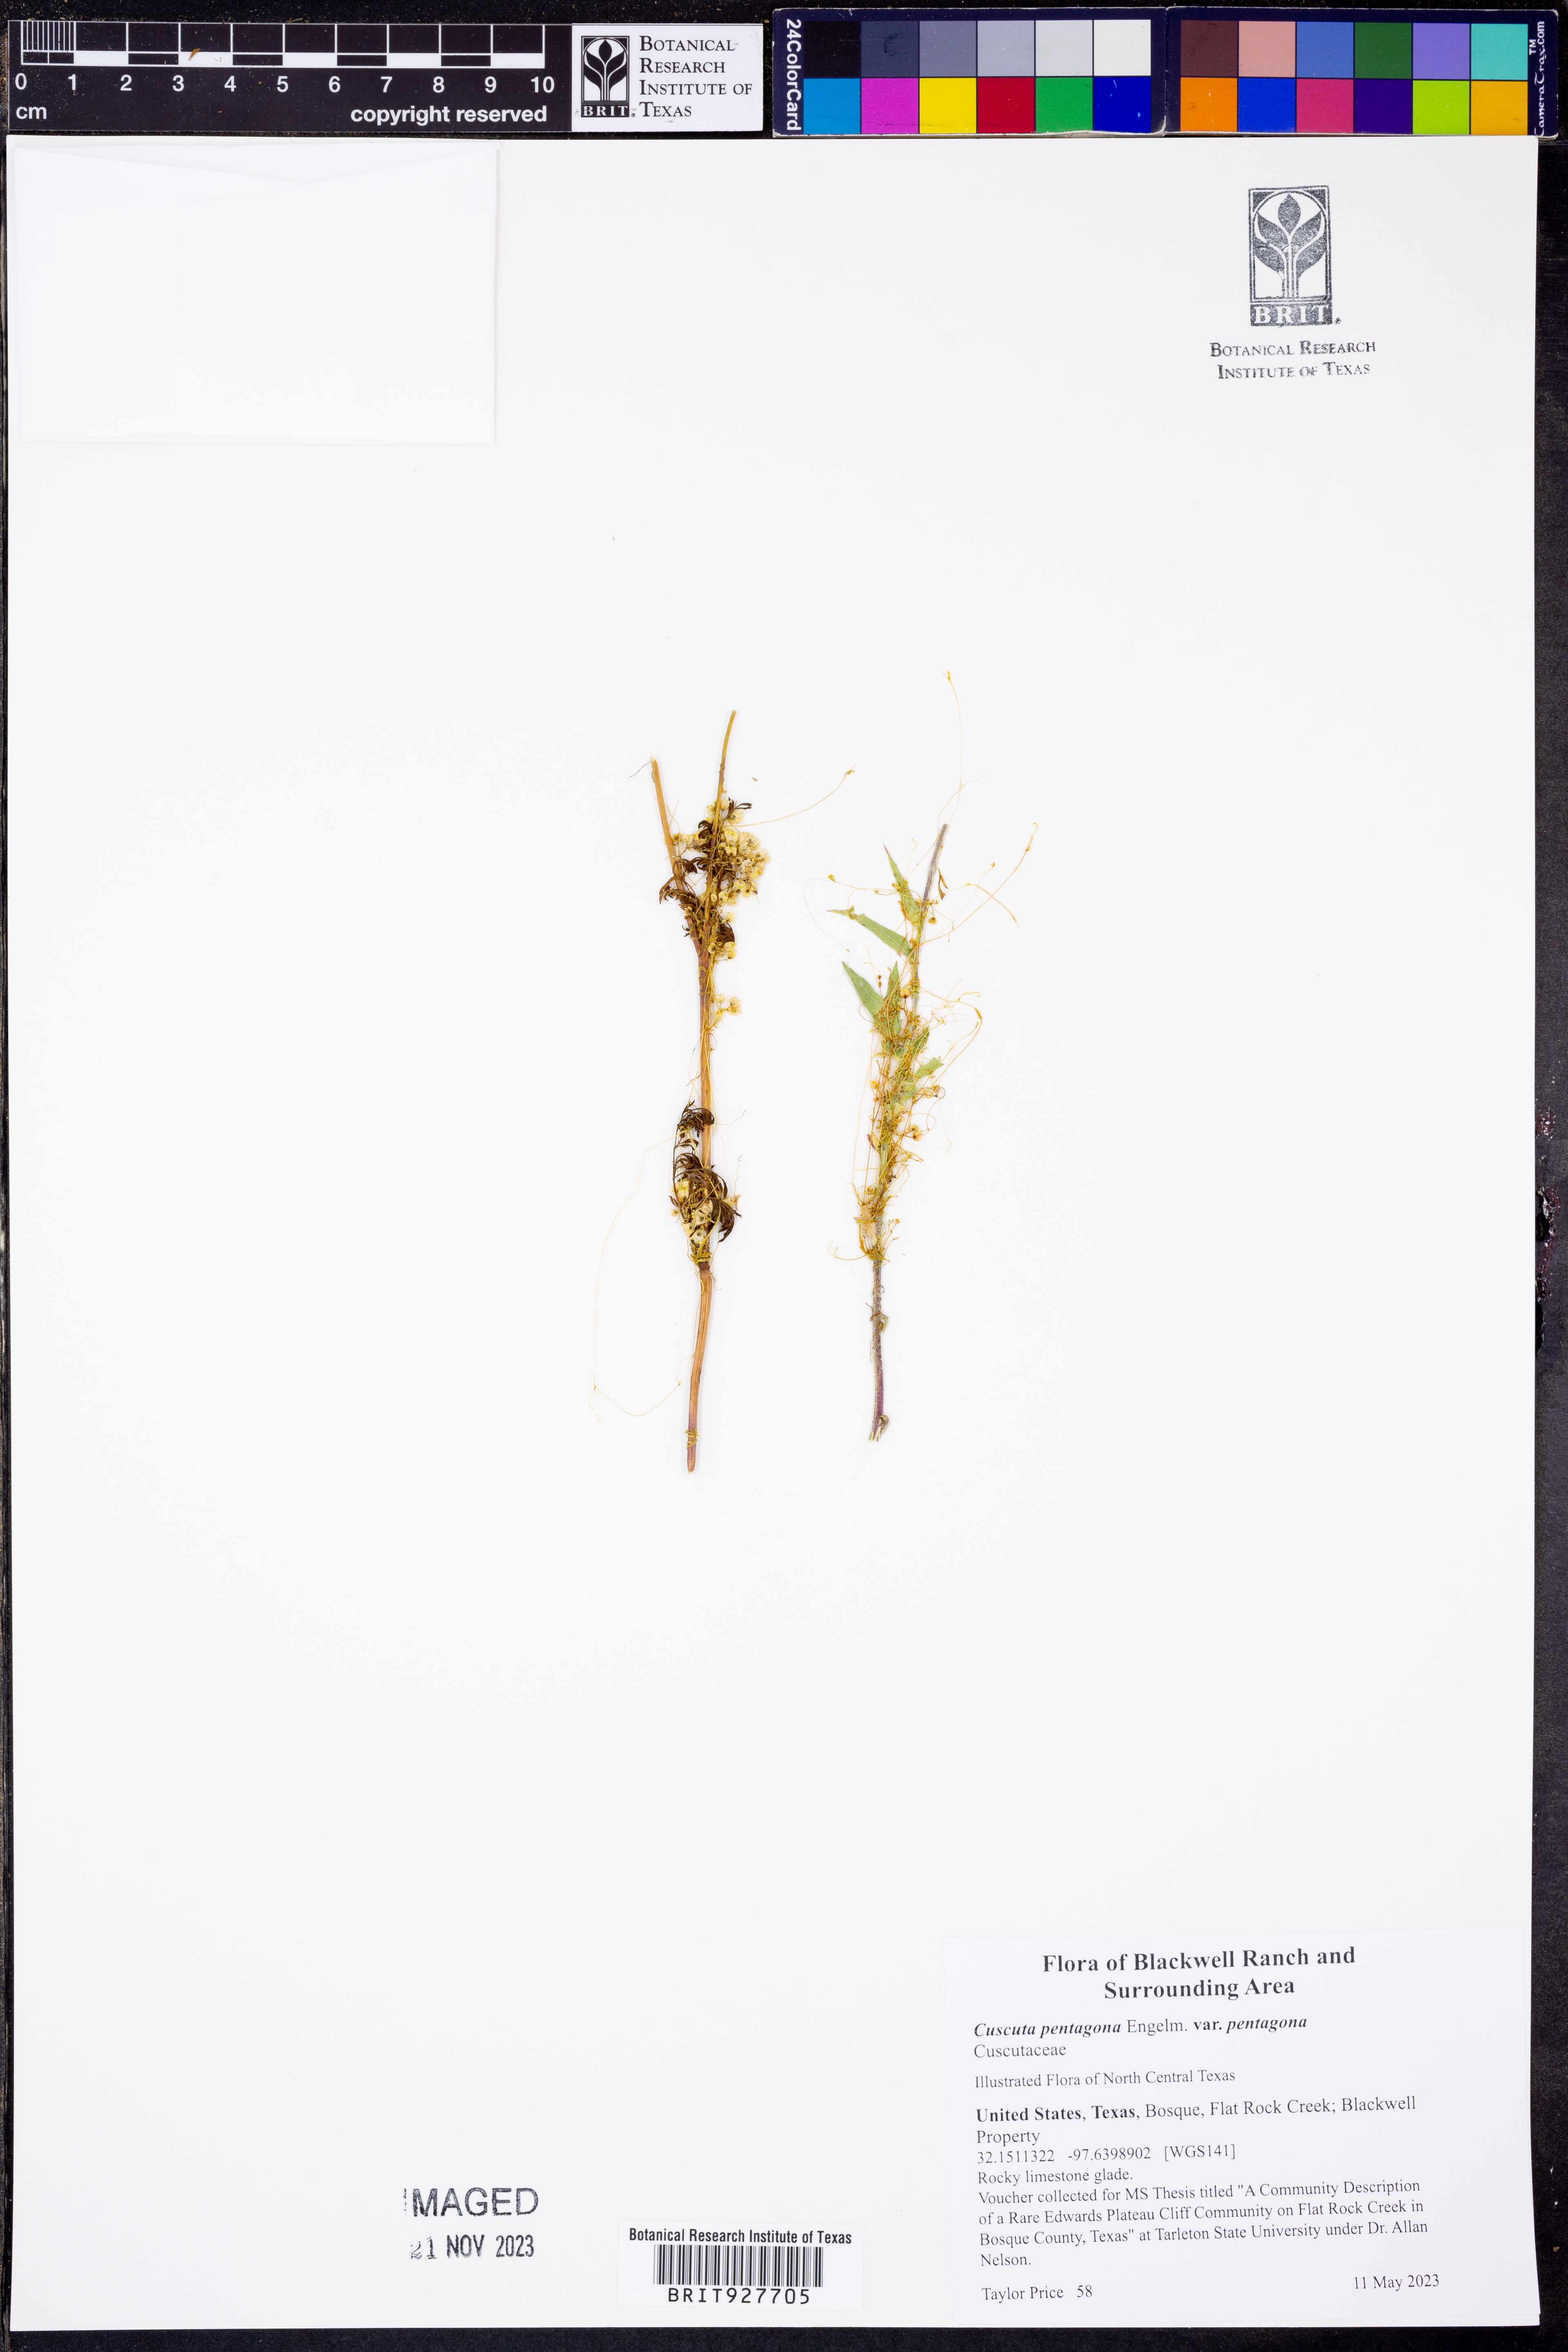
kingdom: Plantae
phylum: Tracheophyta
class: Magnoliopsida
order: Solanales
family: Convolvulaceae
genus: Cuscuta
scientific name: Cuscuta pentagona
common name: Fiveangled dodder
